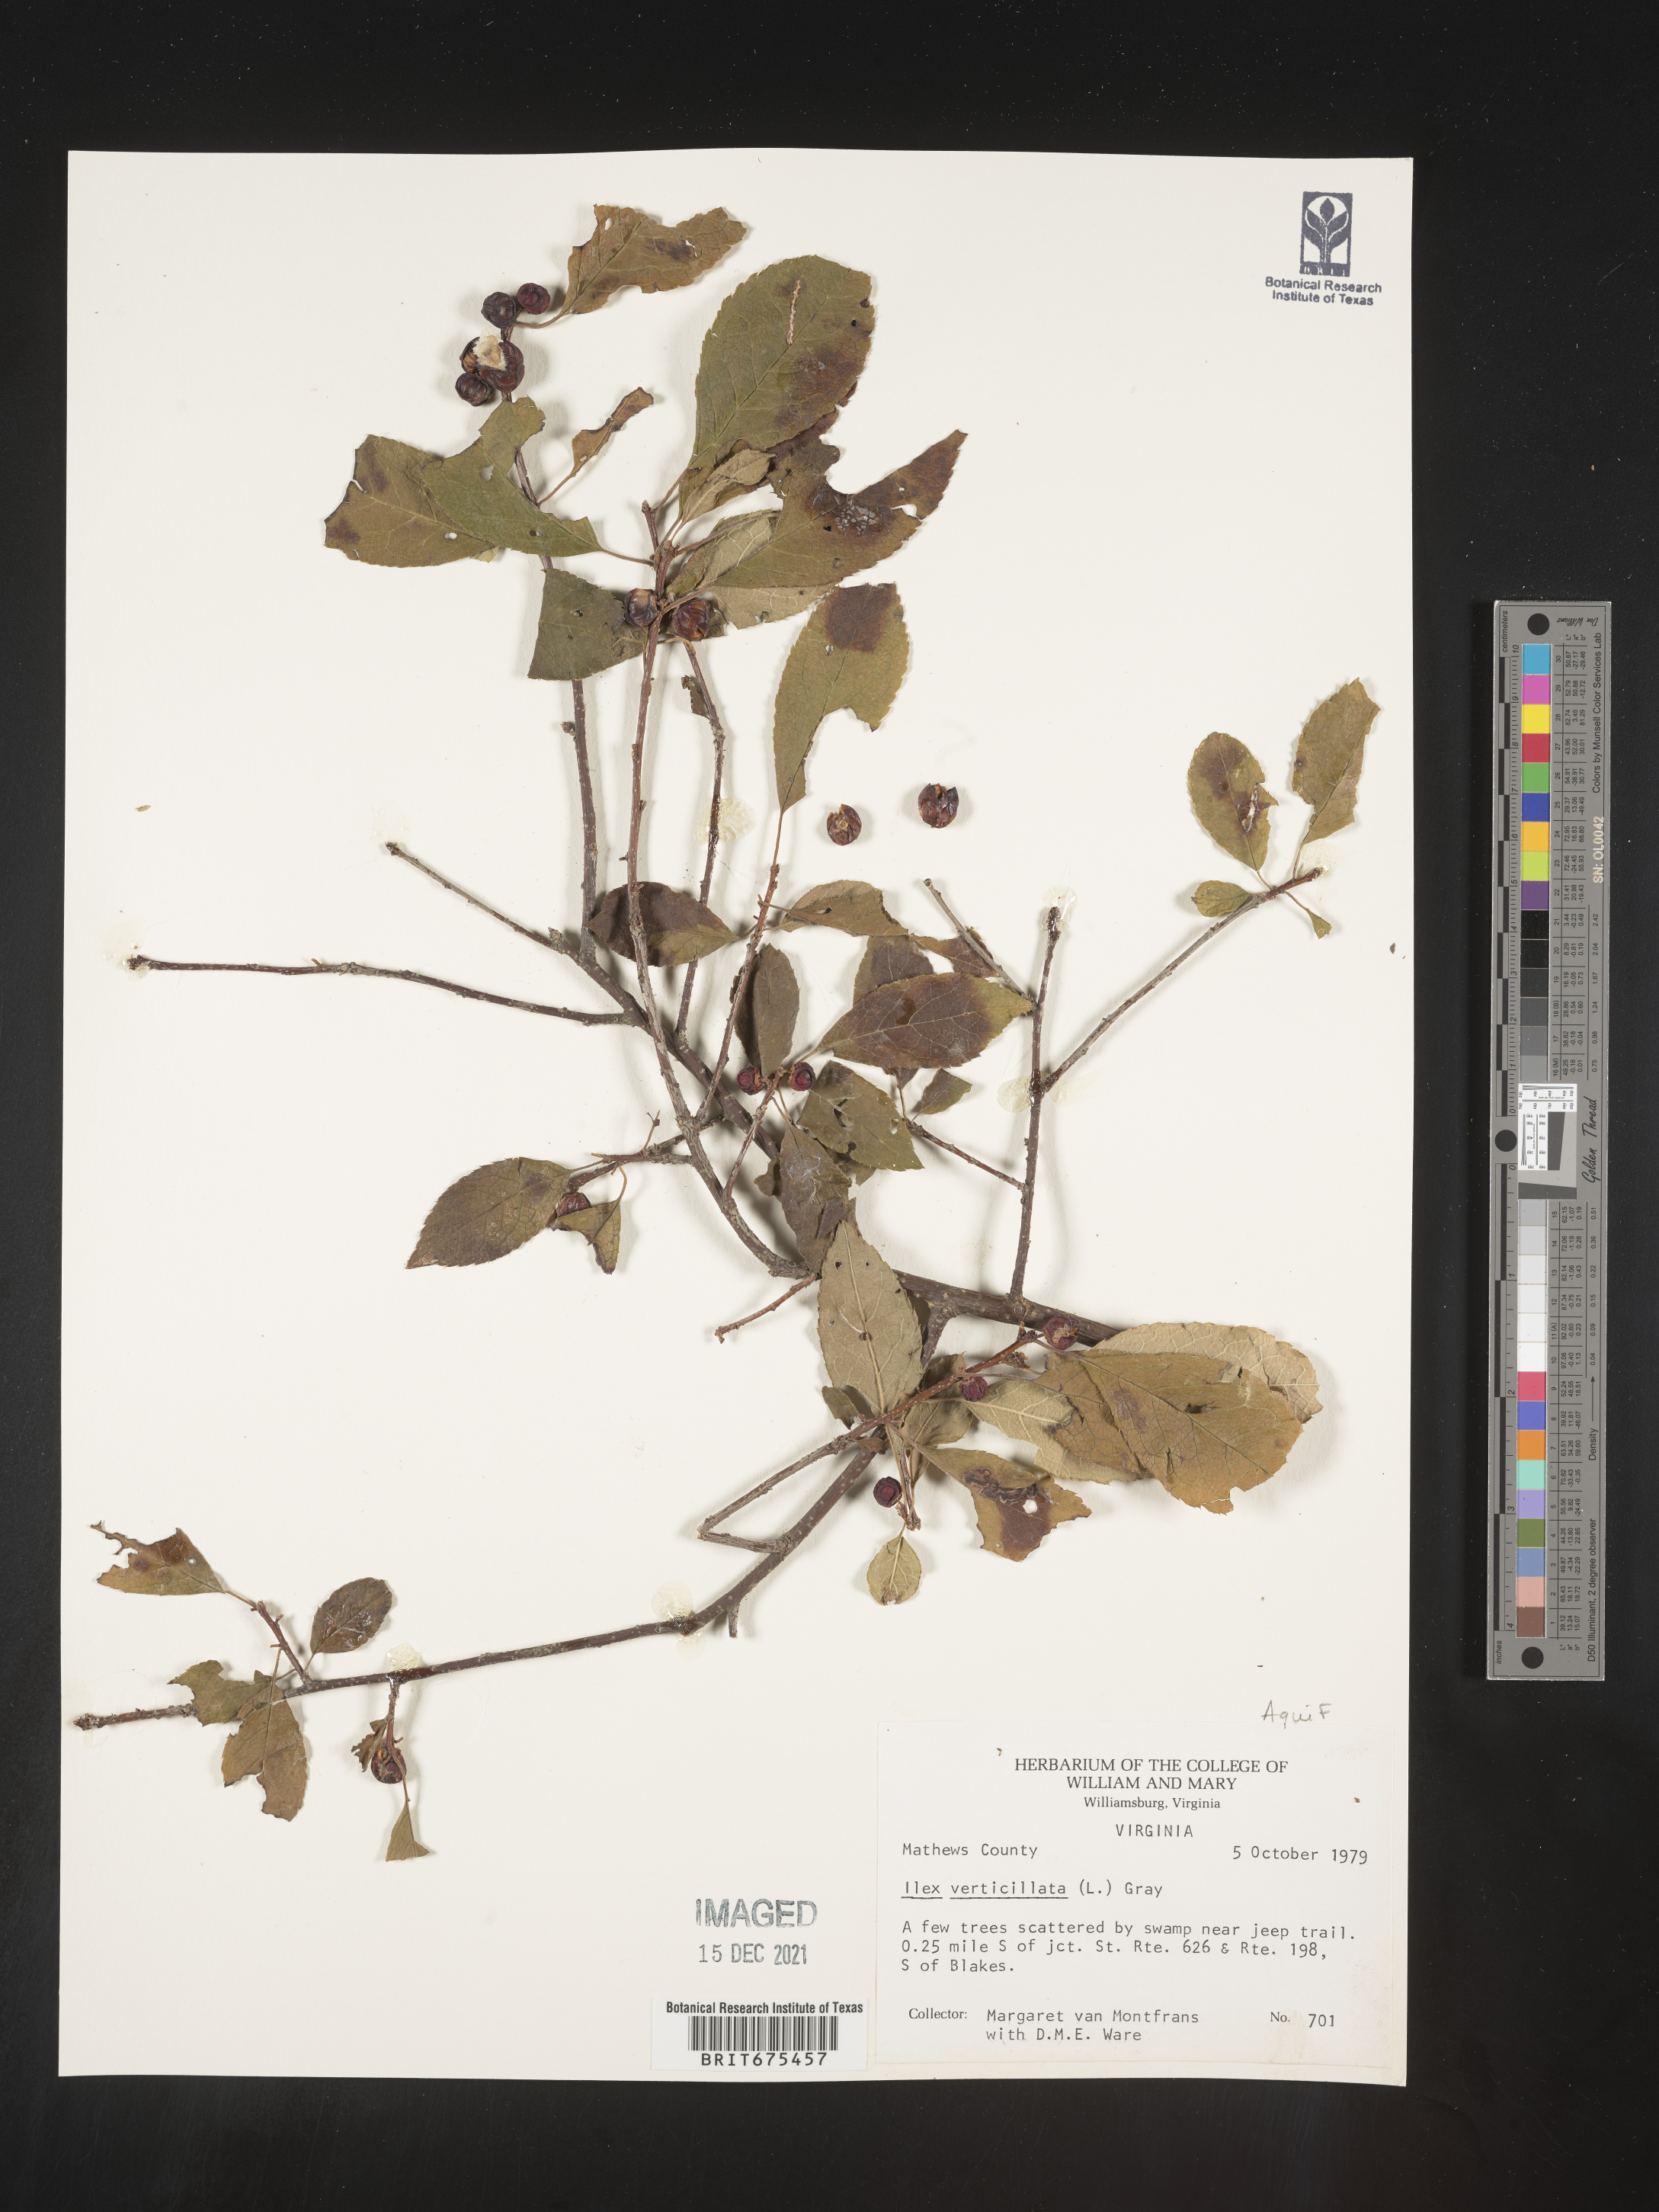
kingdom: Plantae
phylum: Tracheophyta
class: Magnoliopsida
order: Aquifoliales
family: Aquifoliaceae
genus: Ilex
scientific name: Ilex verticillata
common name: Virginia winterberry
